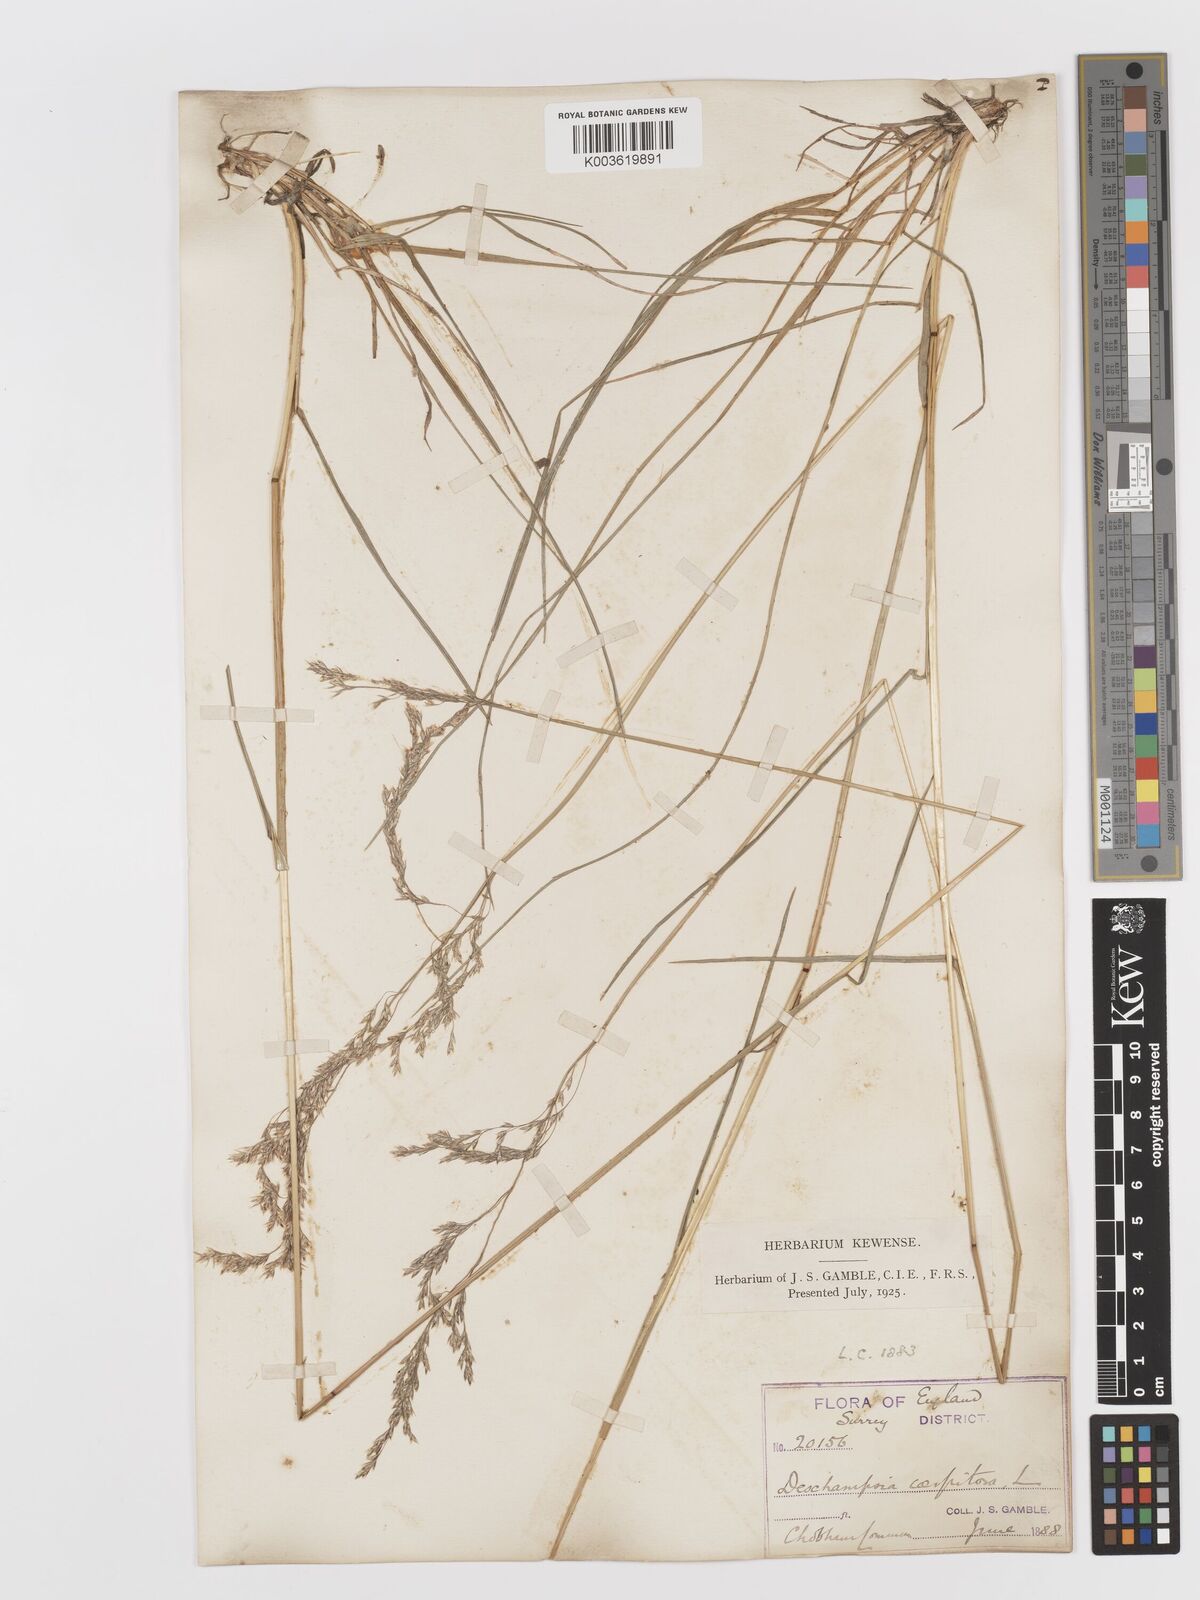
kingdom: Plantae
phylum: Tracheophyta
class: Liliopsida
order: Poales
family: Poaceae
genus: Deschampsia
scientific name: Deschampsia
